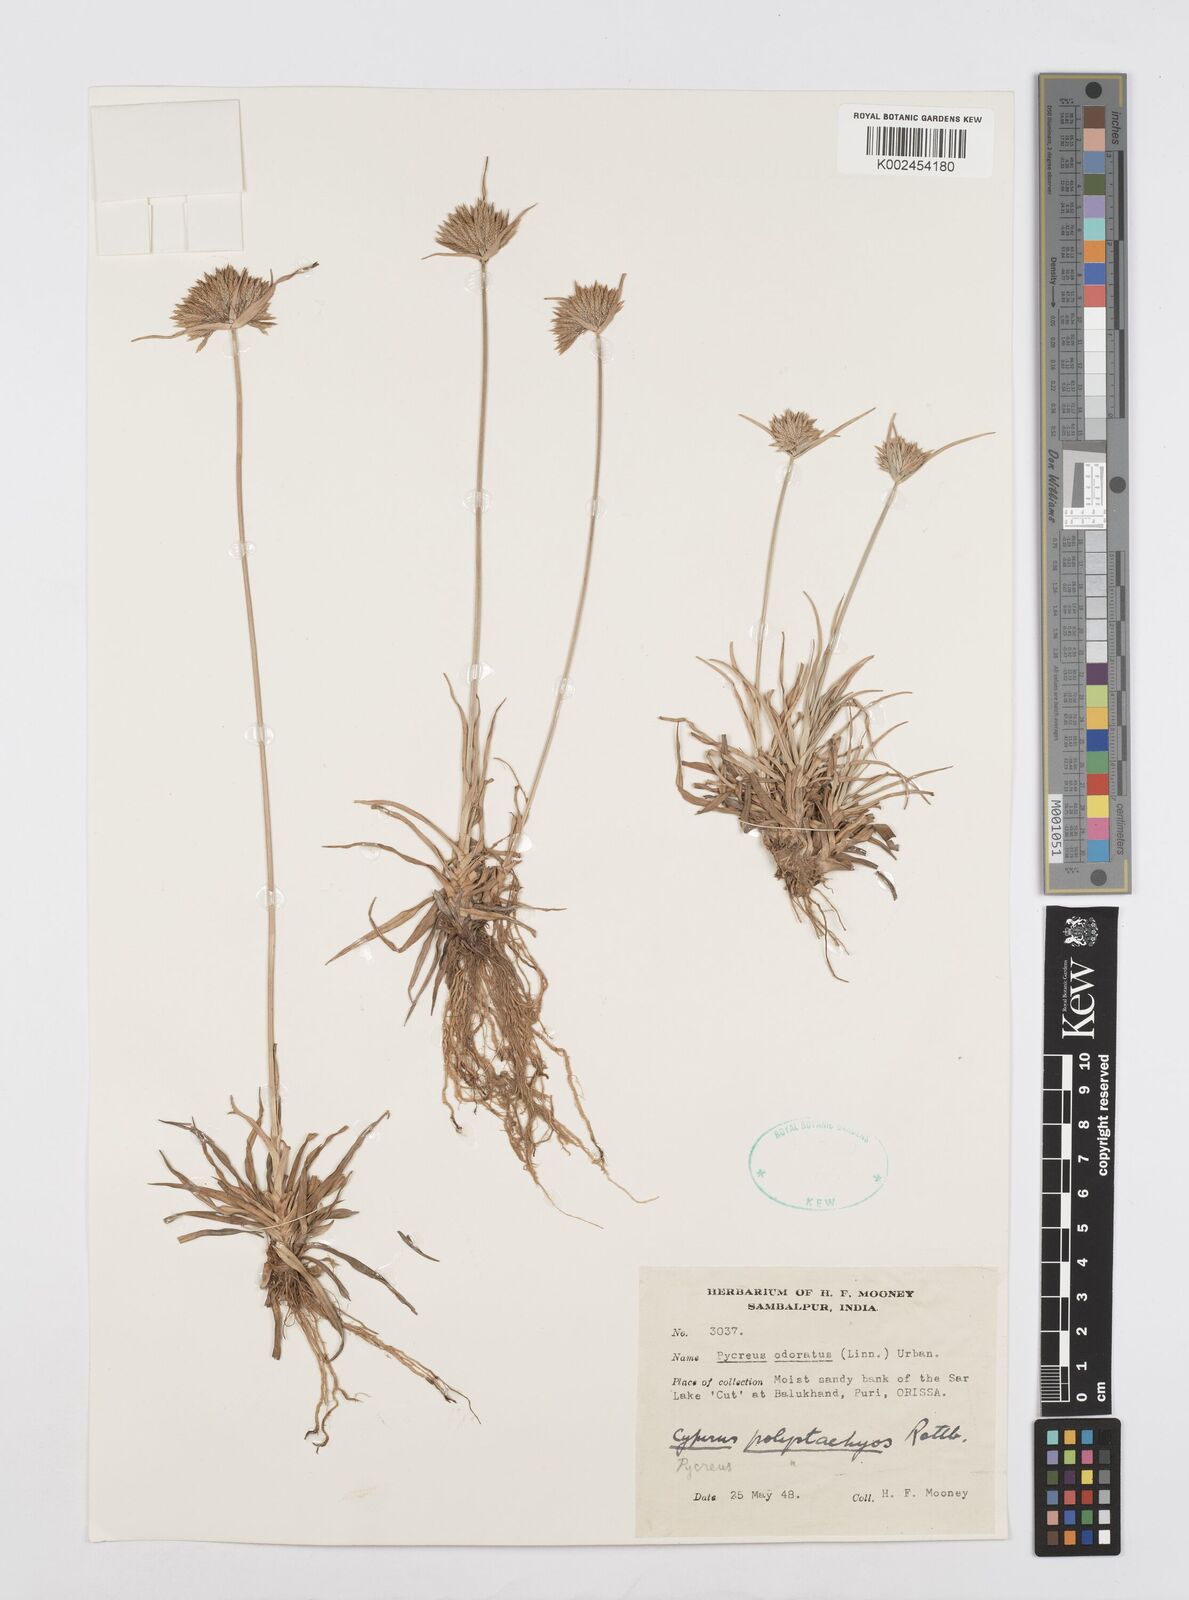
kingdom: Plantae
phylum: Tracheophyta
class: Liliopsida
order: Poales
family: Cyperaceae
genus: Cyperus
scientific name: Cyperus polystachyos
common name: Bunchy flat sedge
